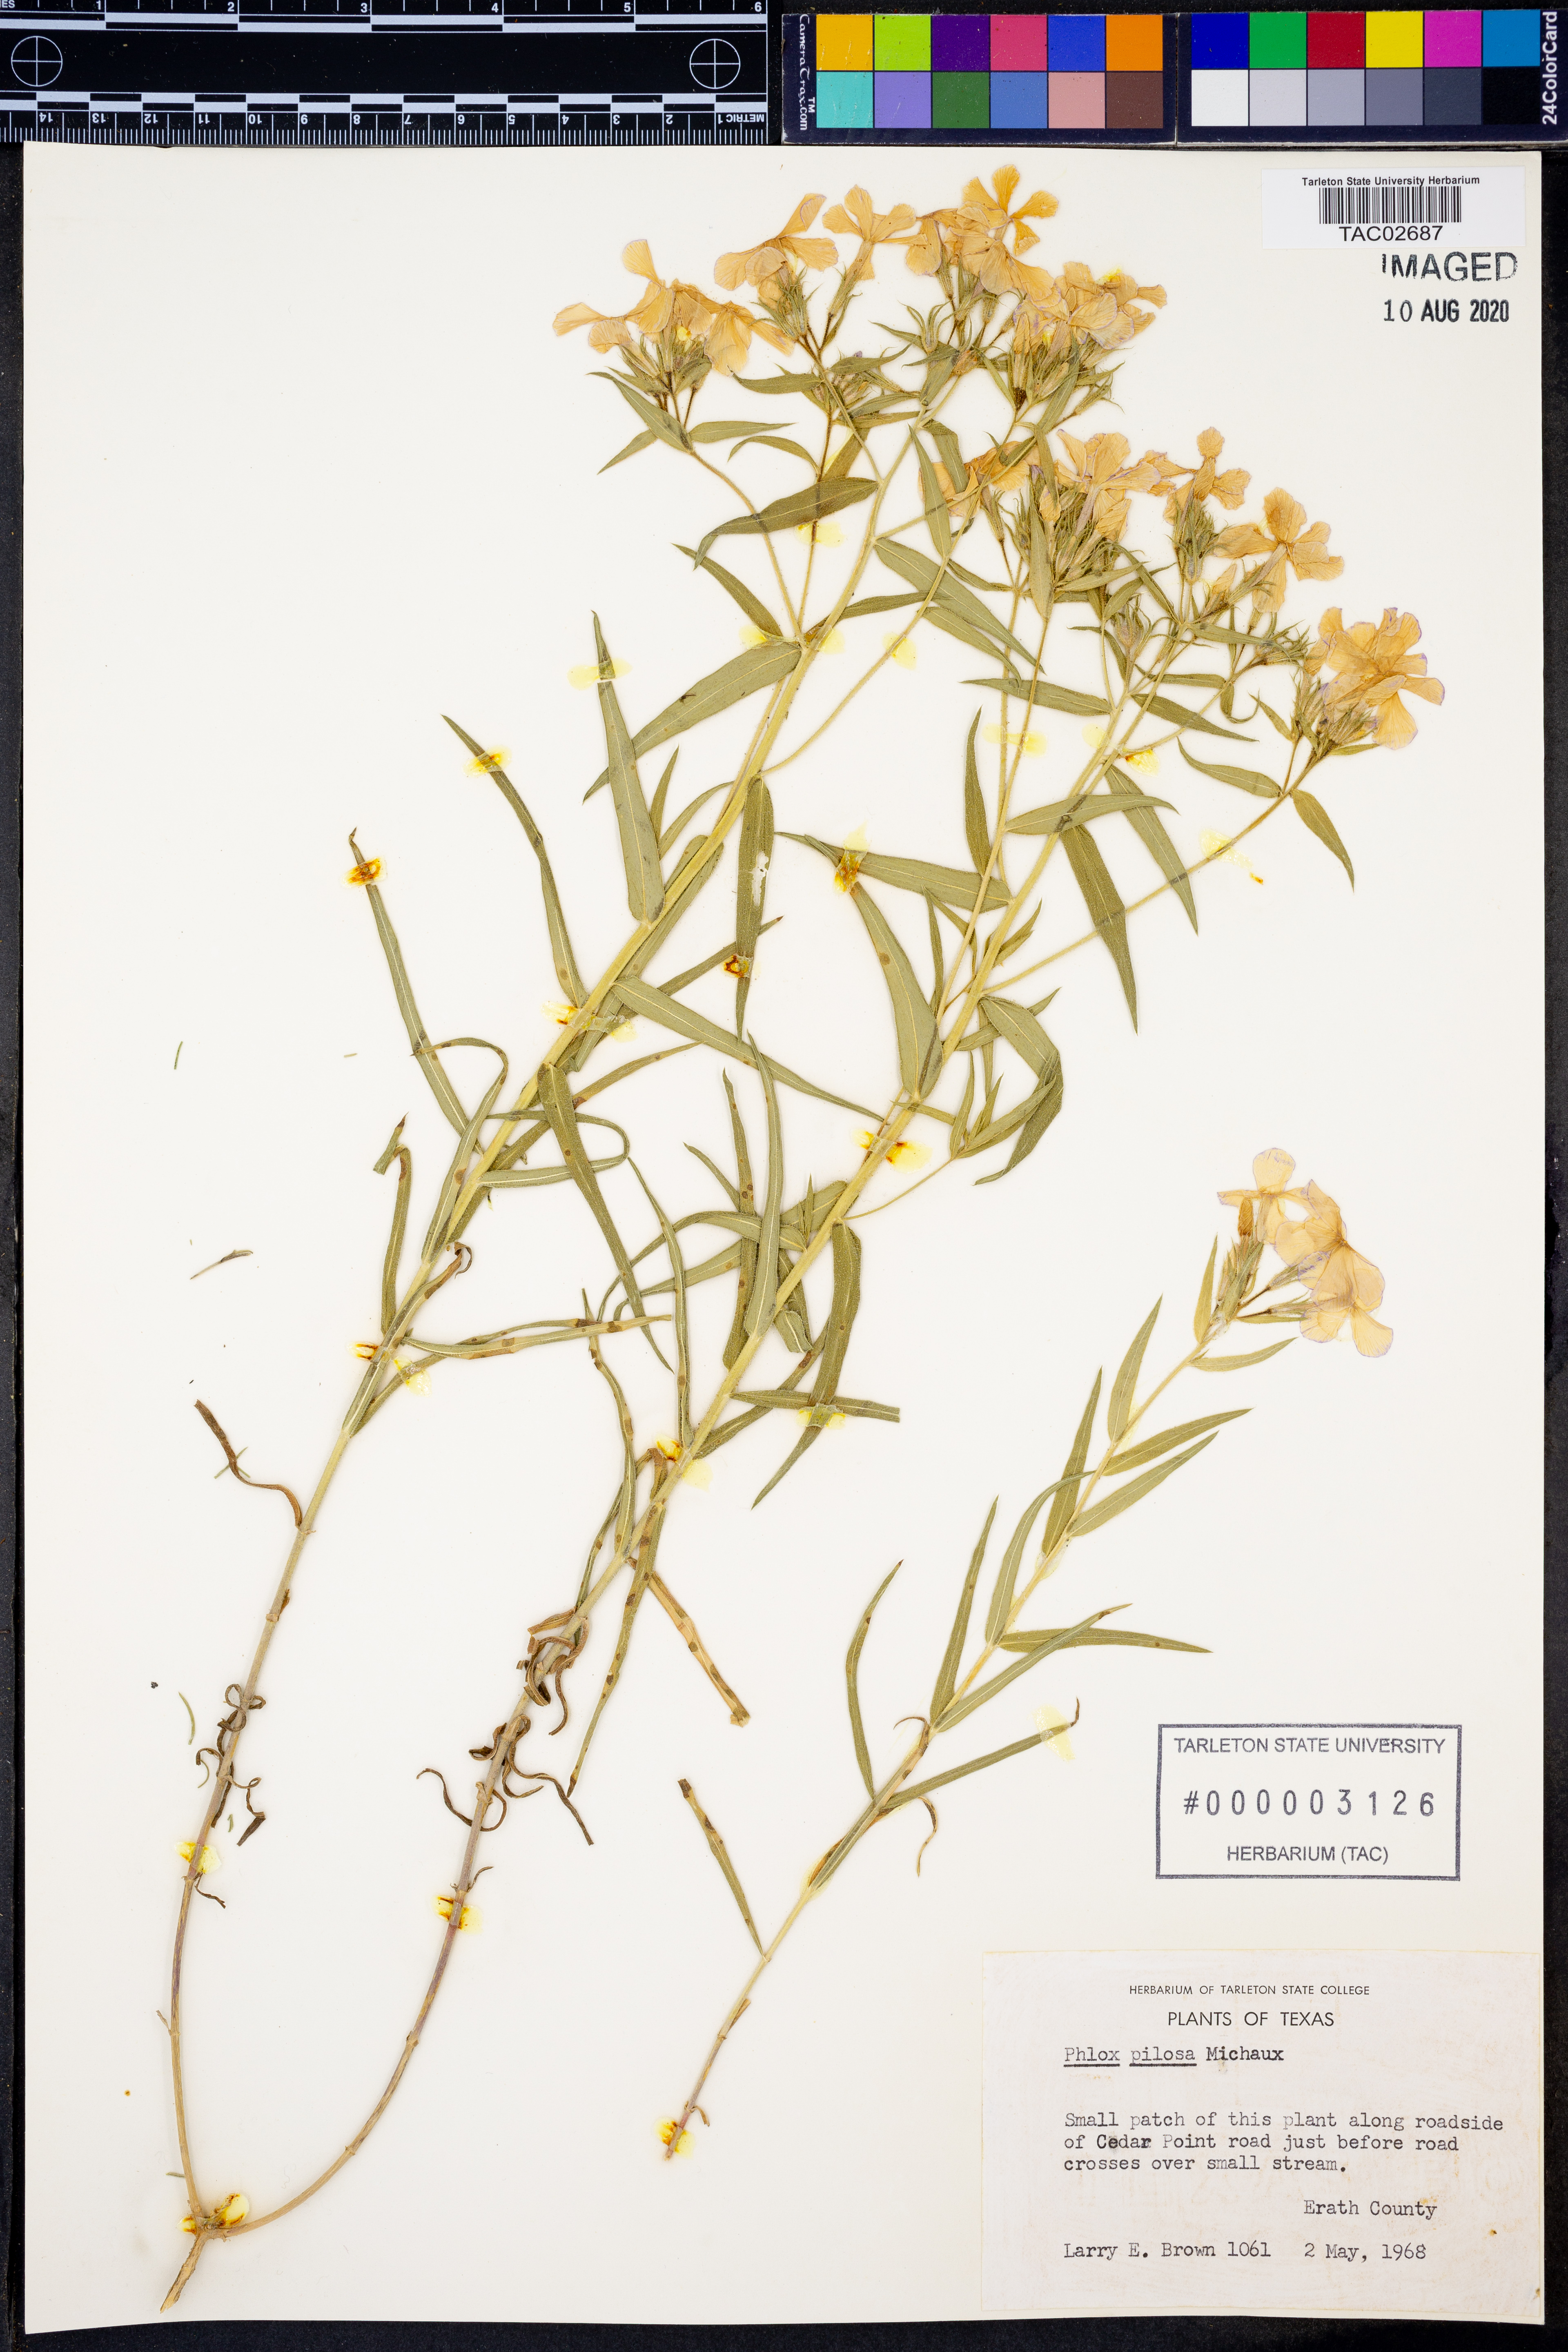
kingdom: Plantae
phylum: Tracheophyta
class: Magnoliopsida
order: Ericales
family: Polemoniaceae
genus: Phlox
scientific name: Phlox pilosa
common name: Prairie phlox
